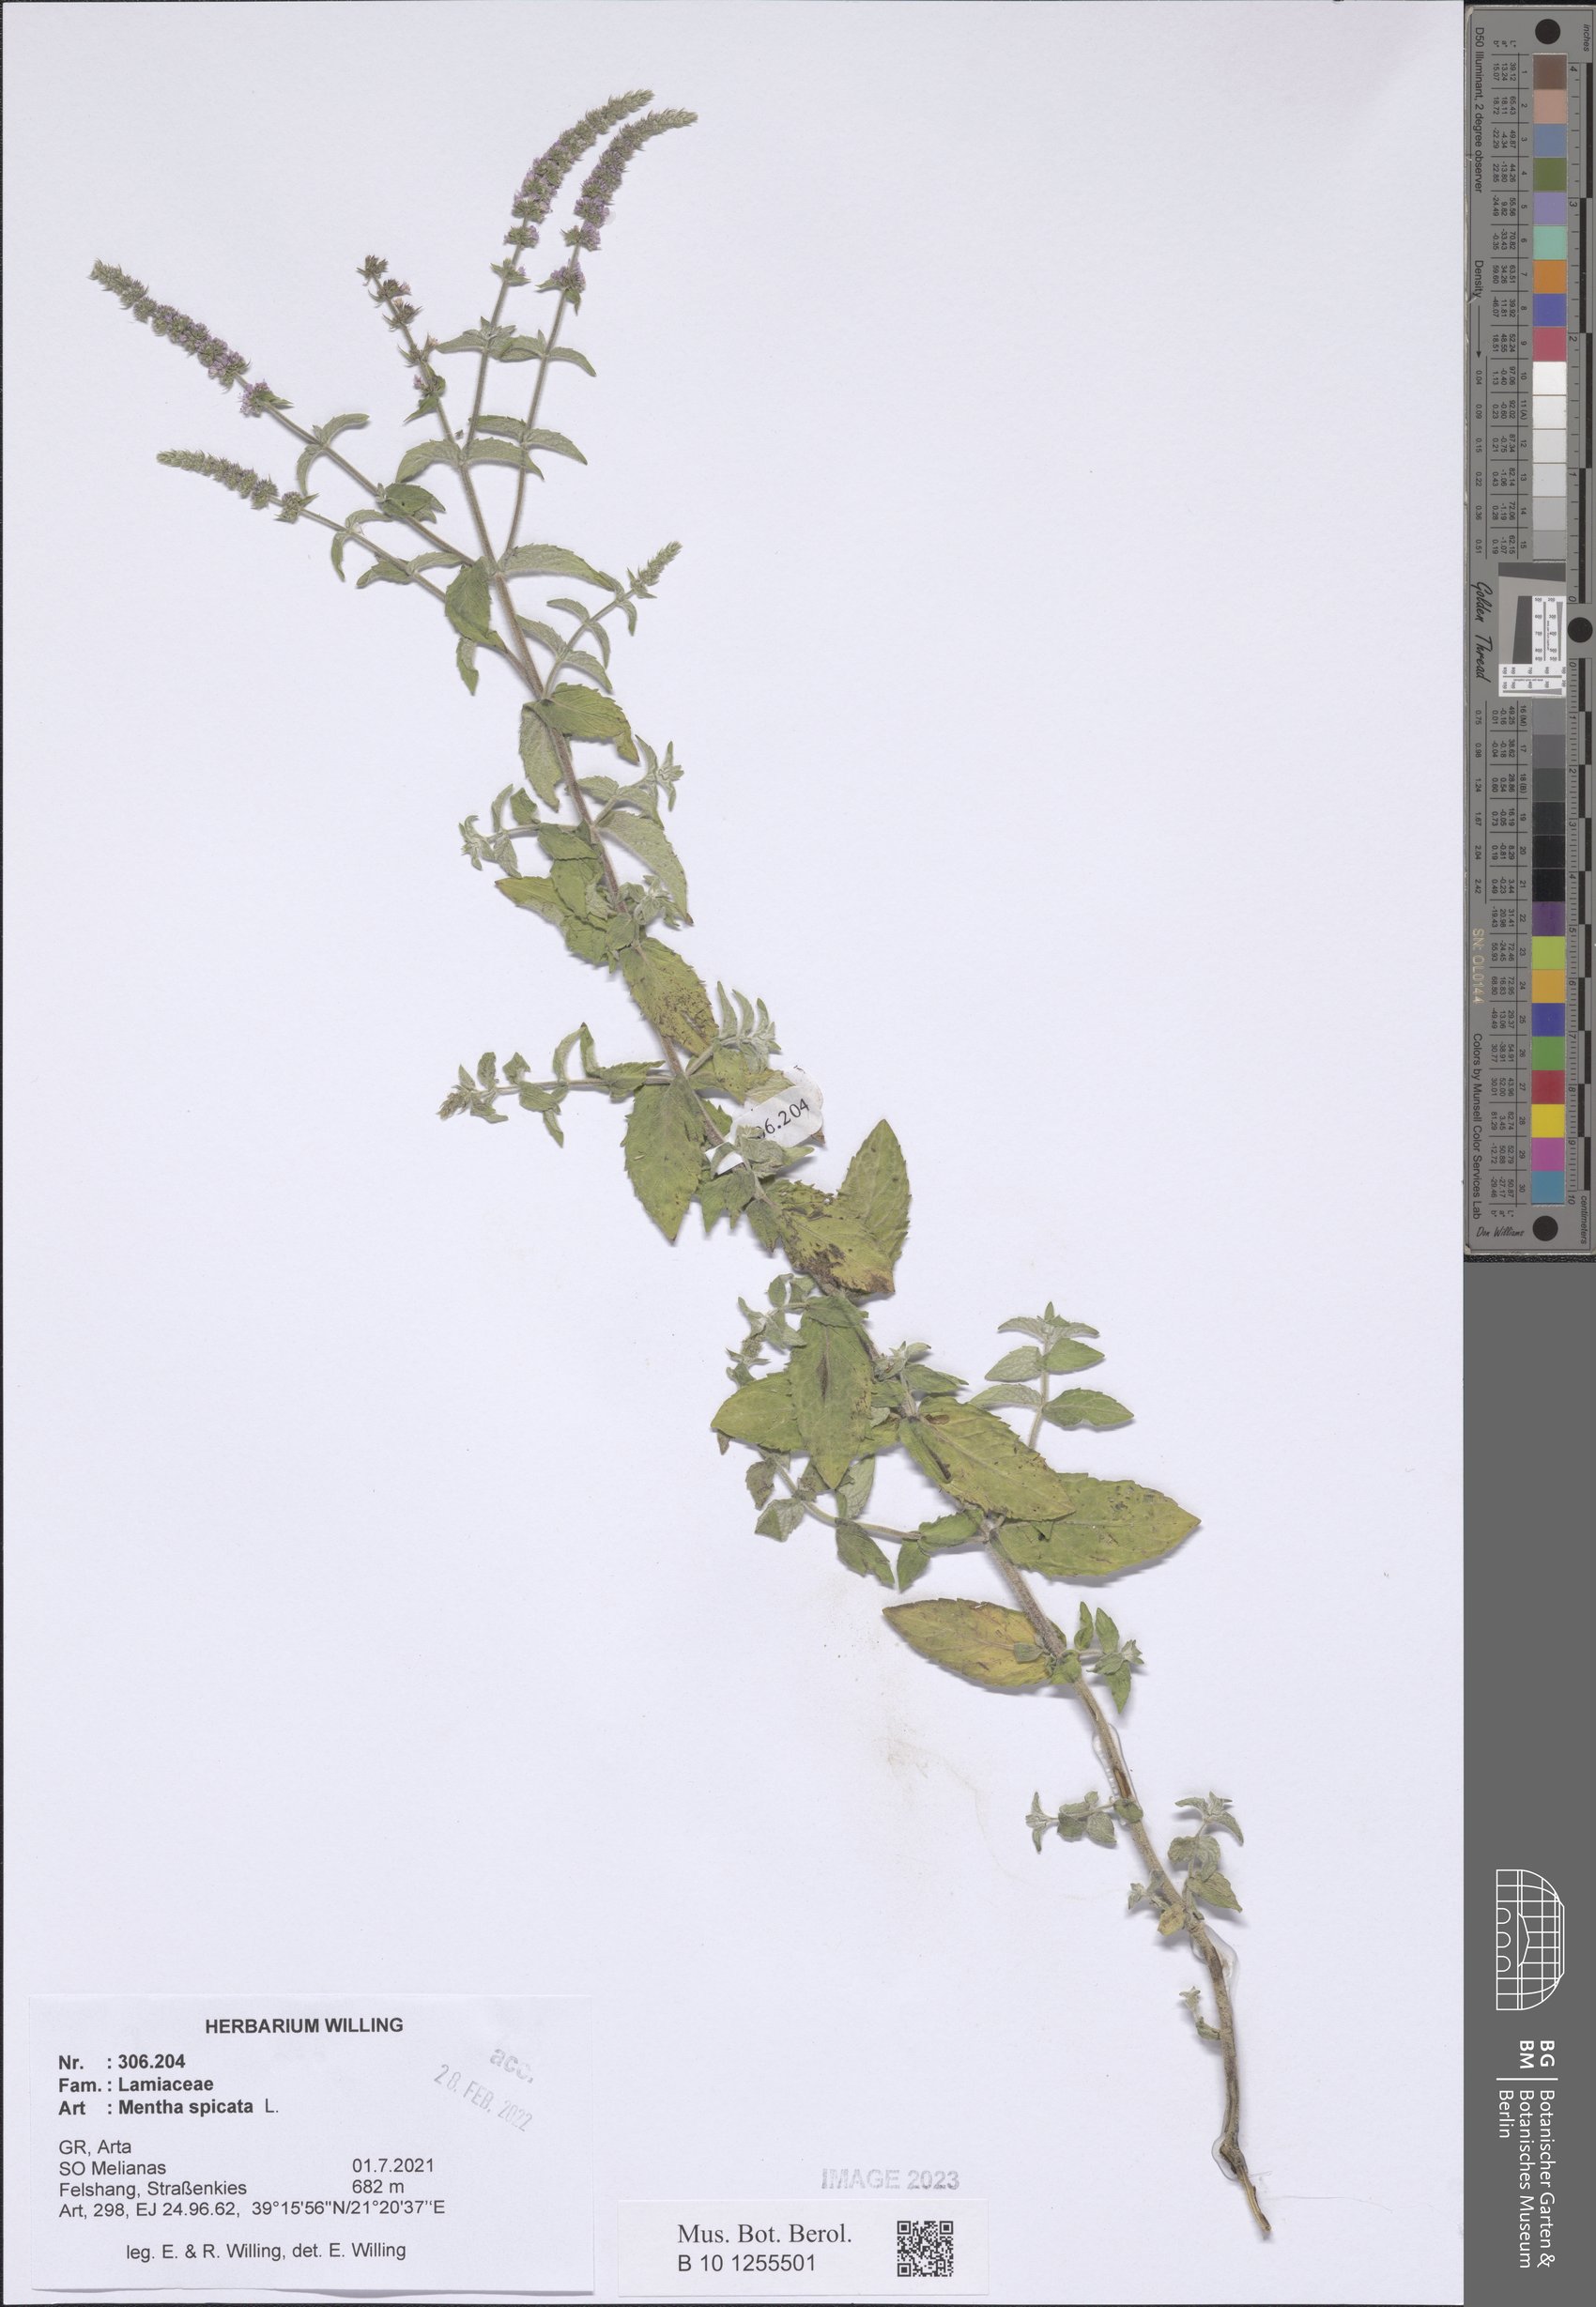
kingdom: Plantae
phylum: Tracheophyta
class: Magnoliopsida
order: Lamiales
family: Lamiaceae
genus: Mentha
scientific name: Mentha spicata
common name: Spearmint
